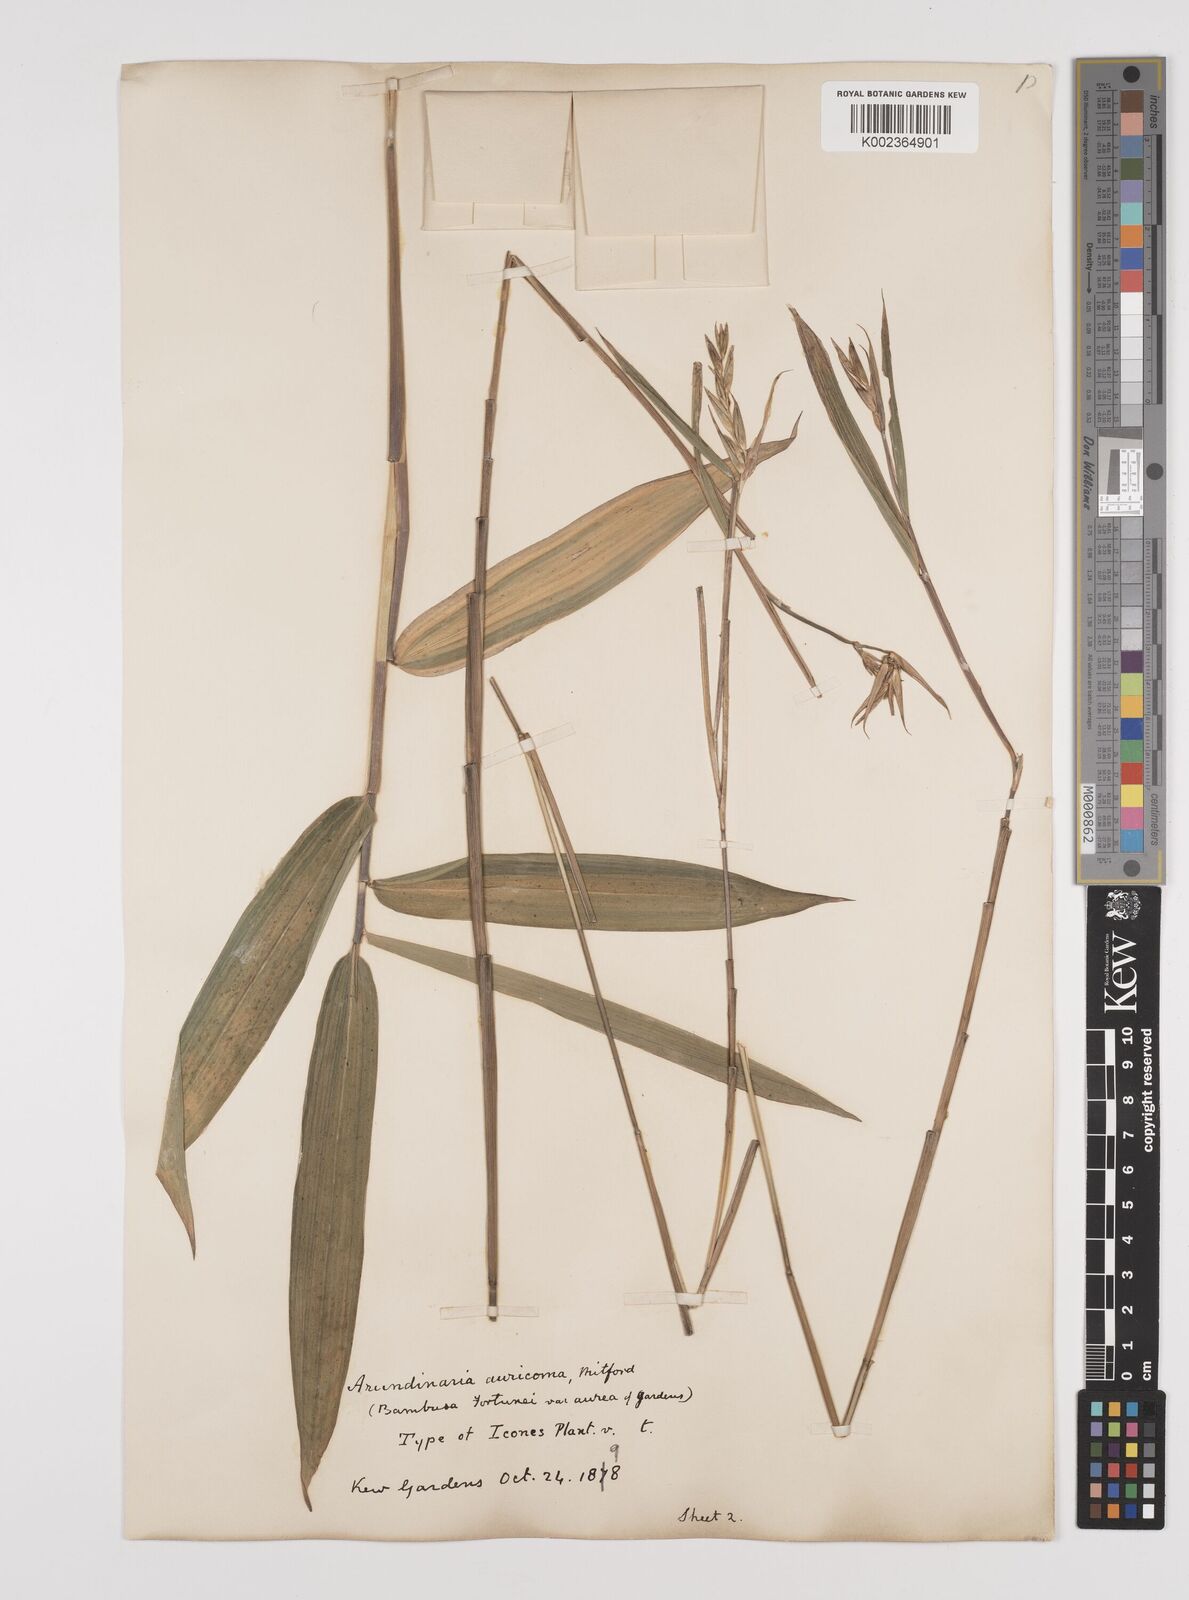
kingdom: Plantae
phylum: Tracheophyta
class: Liliopsida
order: Poales
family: Poaceae
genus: Pleioblastus
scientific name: Pleioblastus viridistriatus
